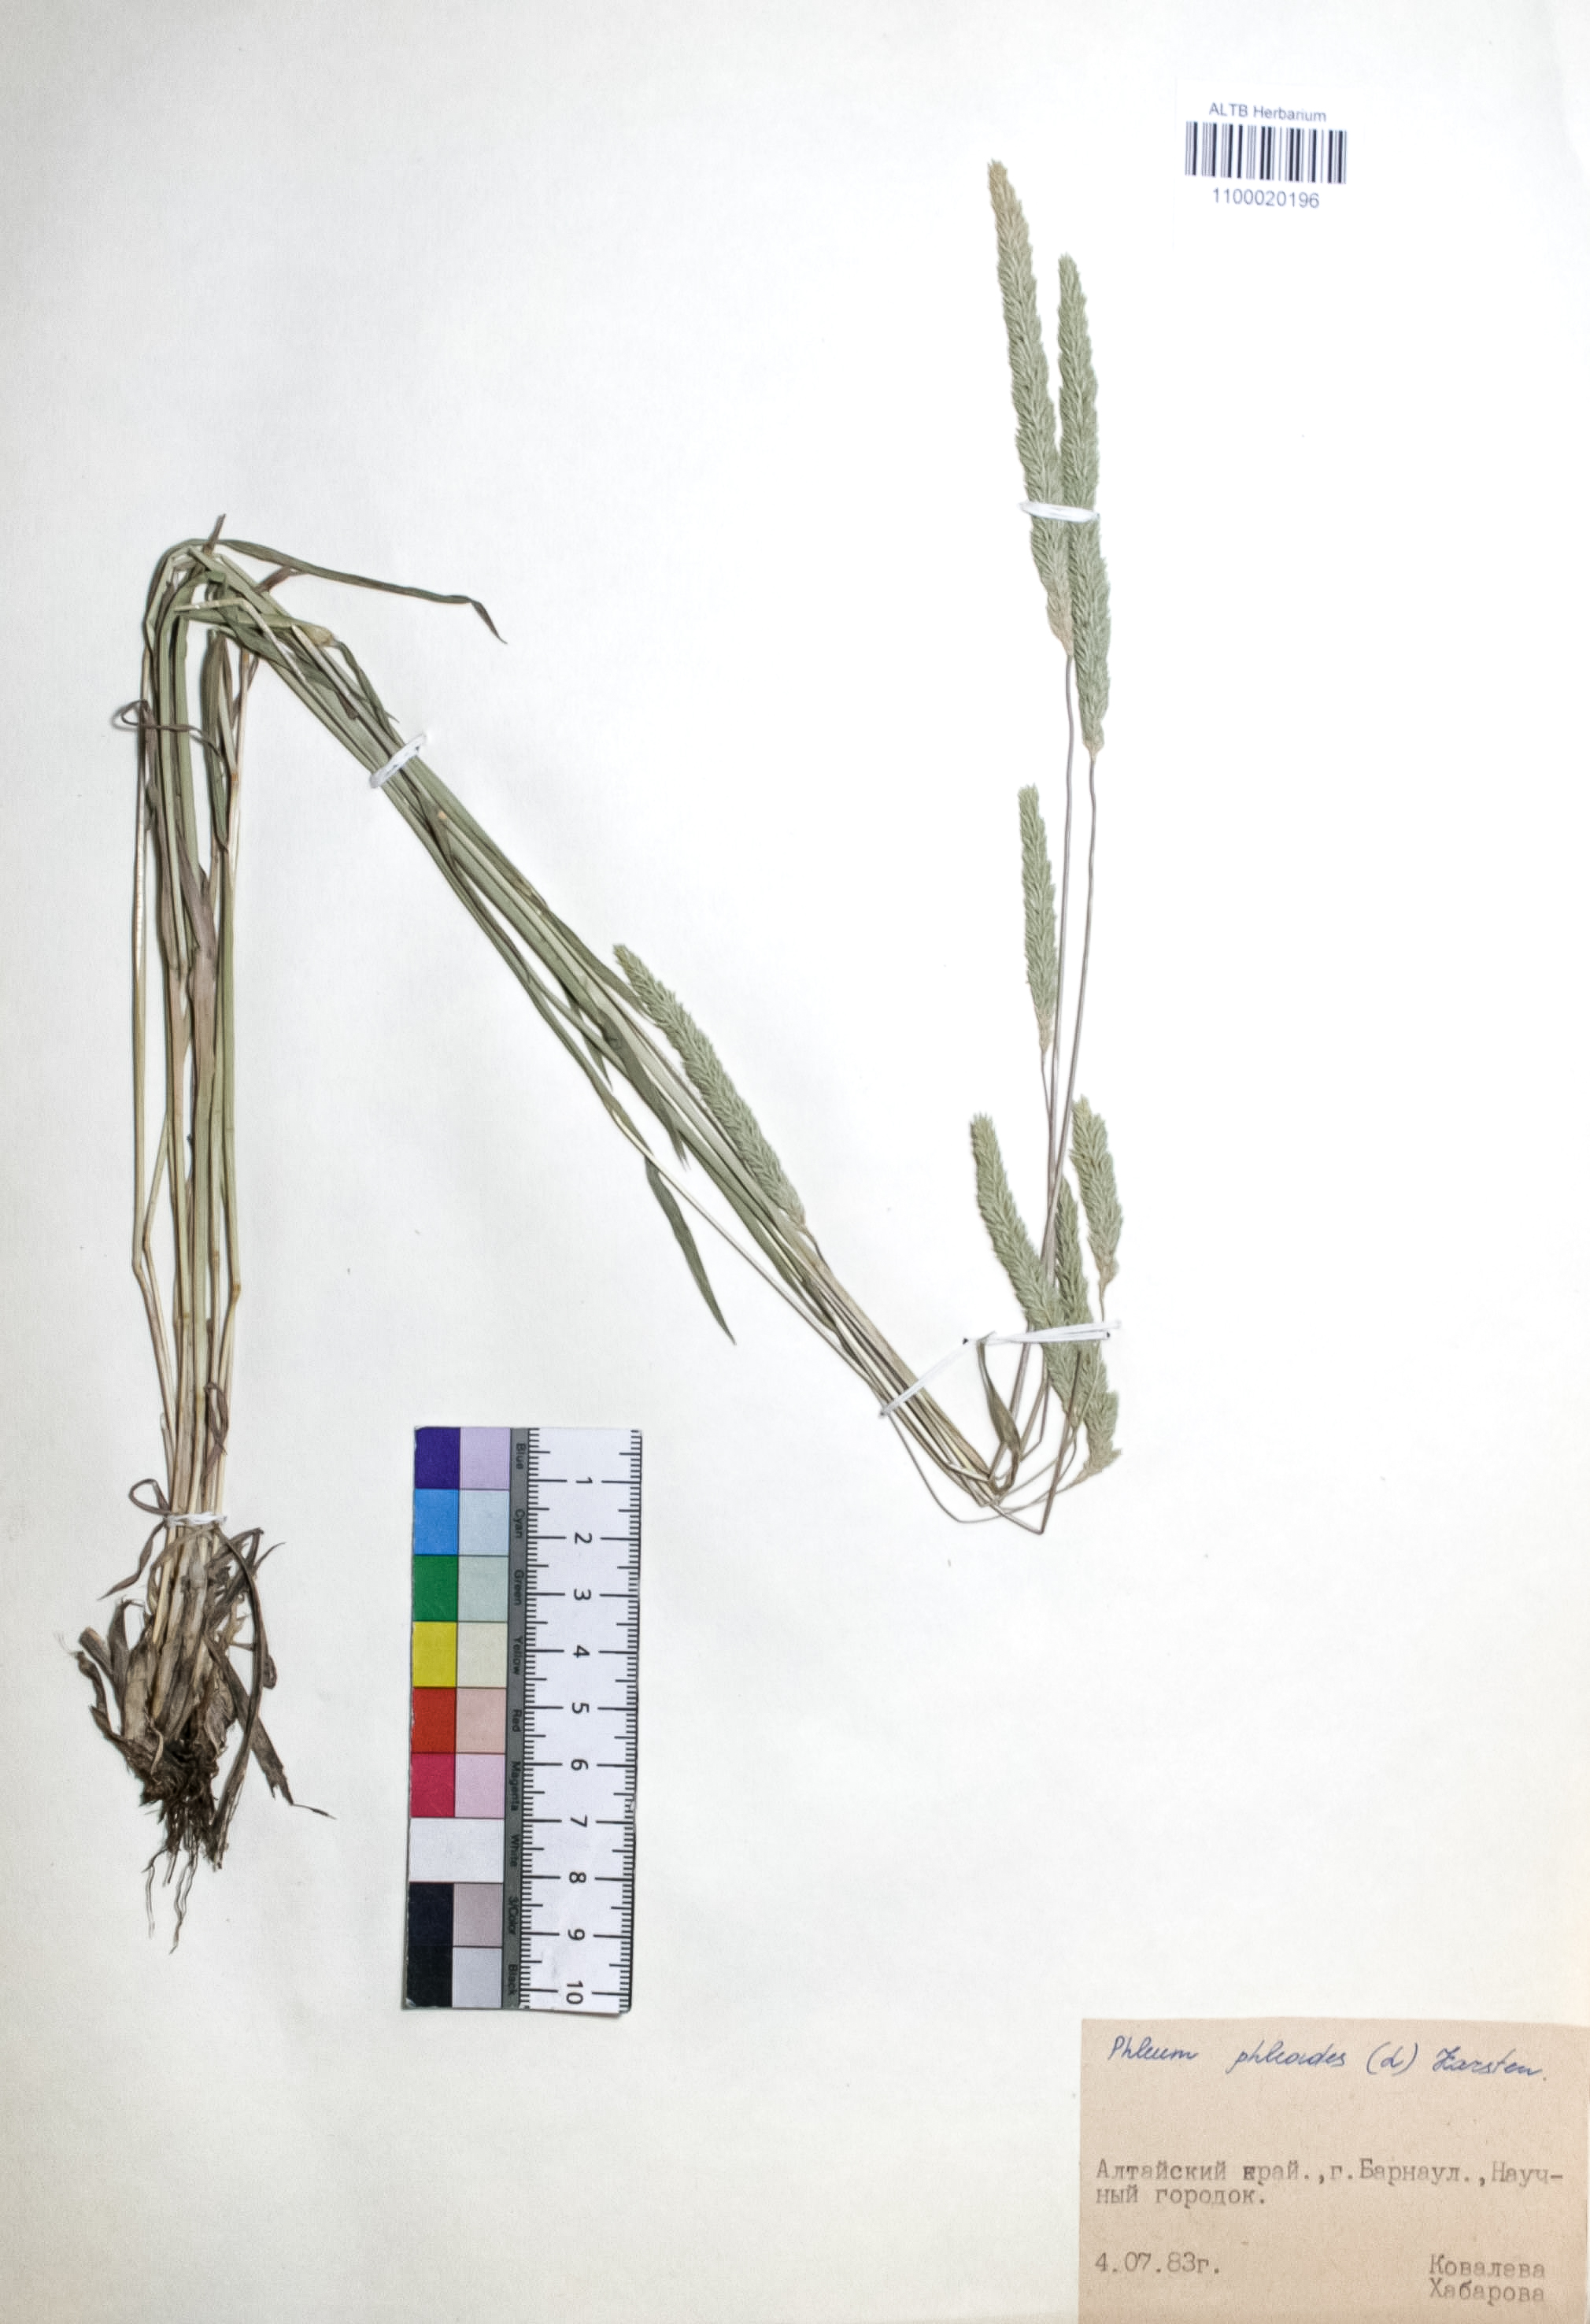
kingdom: Plantae
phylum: Tracheophyta
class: Liliopsida
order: Poales
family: Poaceae
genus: Phleum
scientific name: Phleum phleoides
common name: Purple-stem cat's-tail
